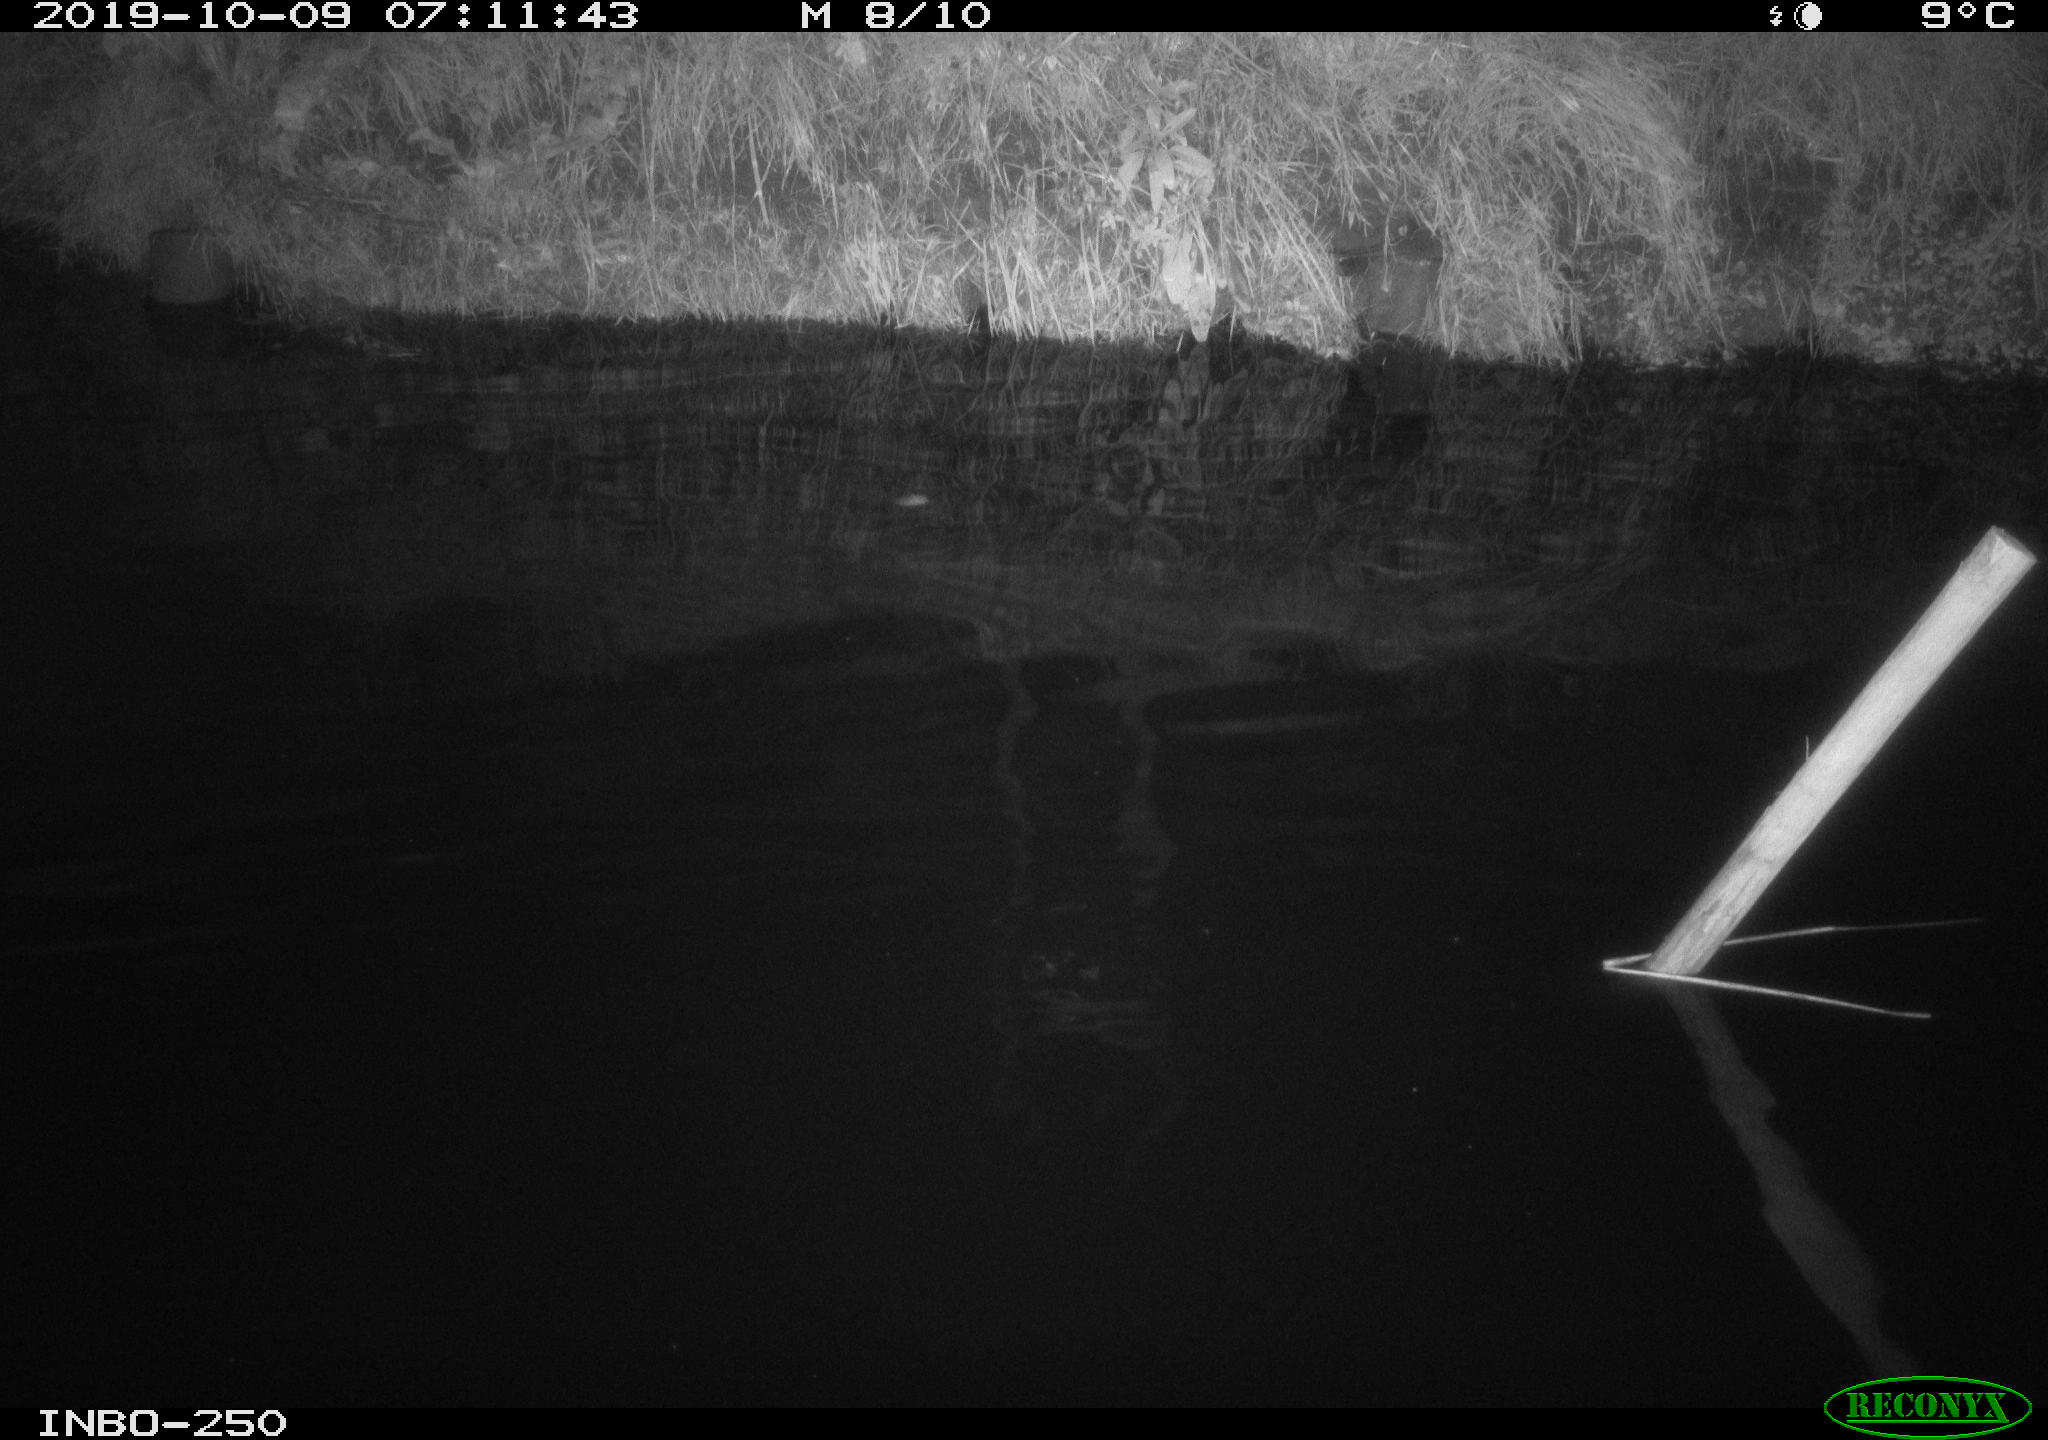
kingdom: Animalia
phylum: Chordata
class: Aves
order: Anseriformes
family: Anatidae
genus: Anas
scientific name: Anas platyrhynchos
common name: Mallard
